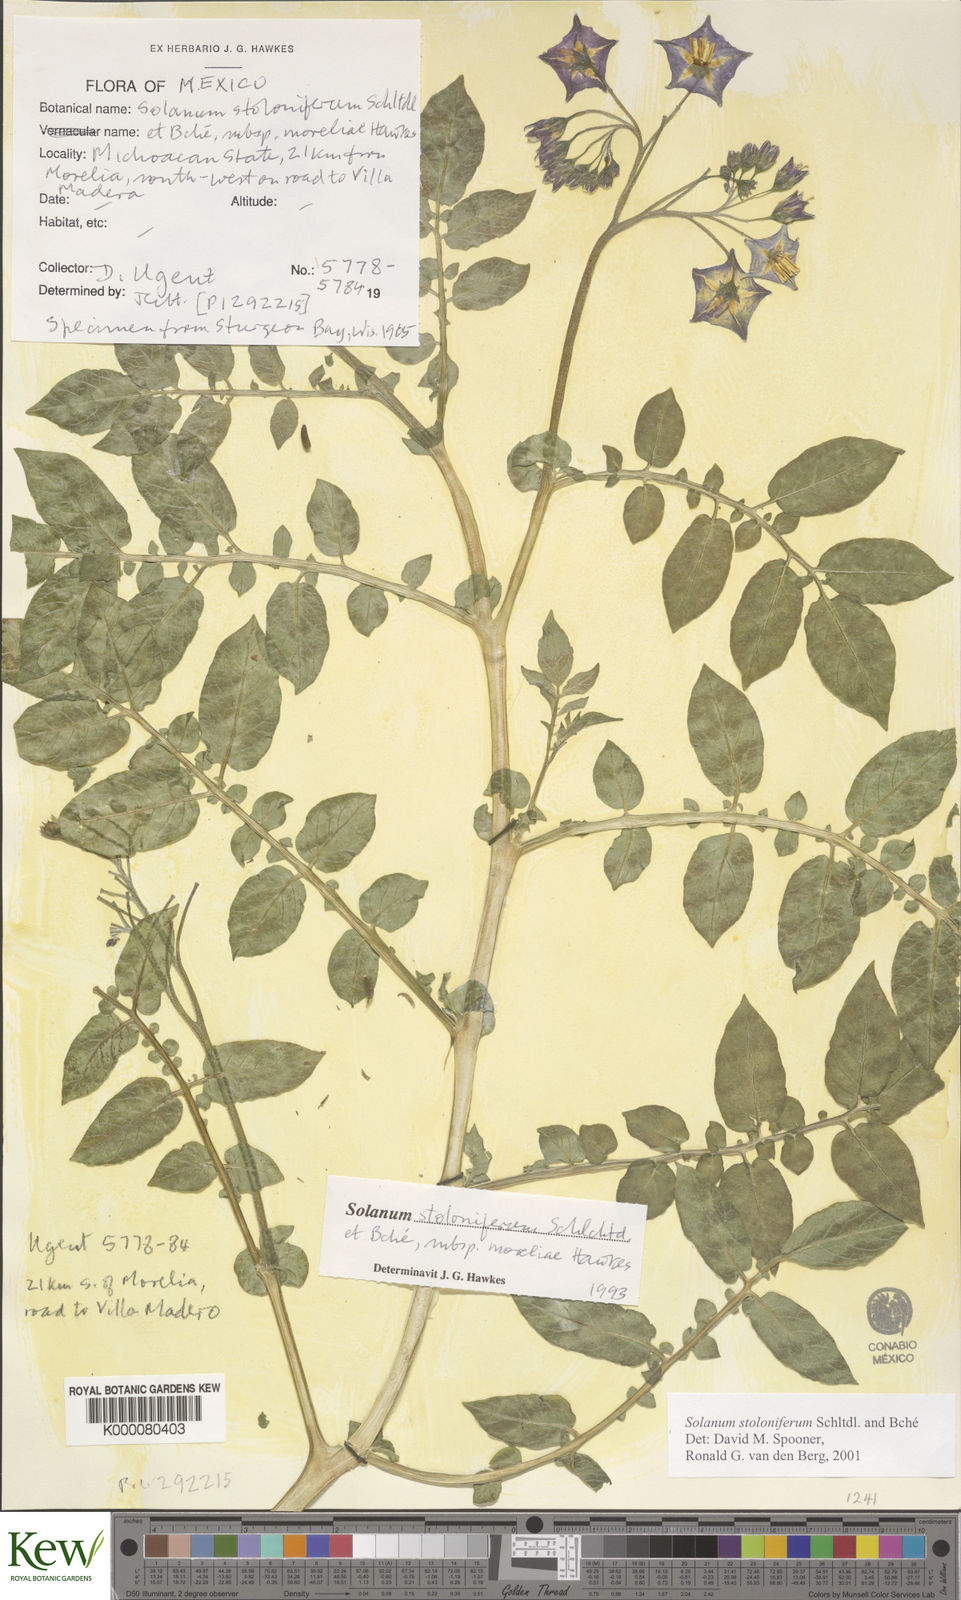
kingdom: Plantae
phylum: Tracheophyta
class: Magnoliopsida
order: Solanales
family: Solanaceae
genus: Solanum
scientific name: Solanum stoloniferum
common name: Fendler's nighshade
